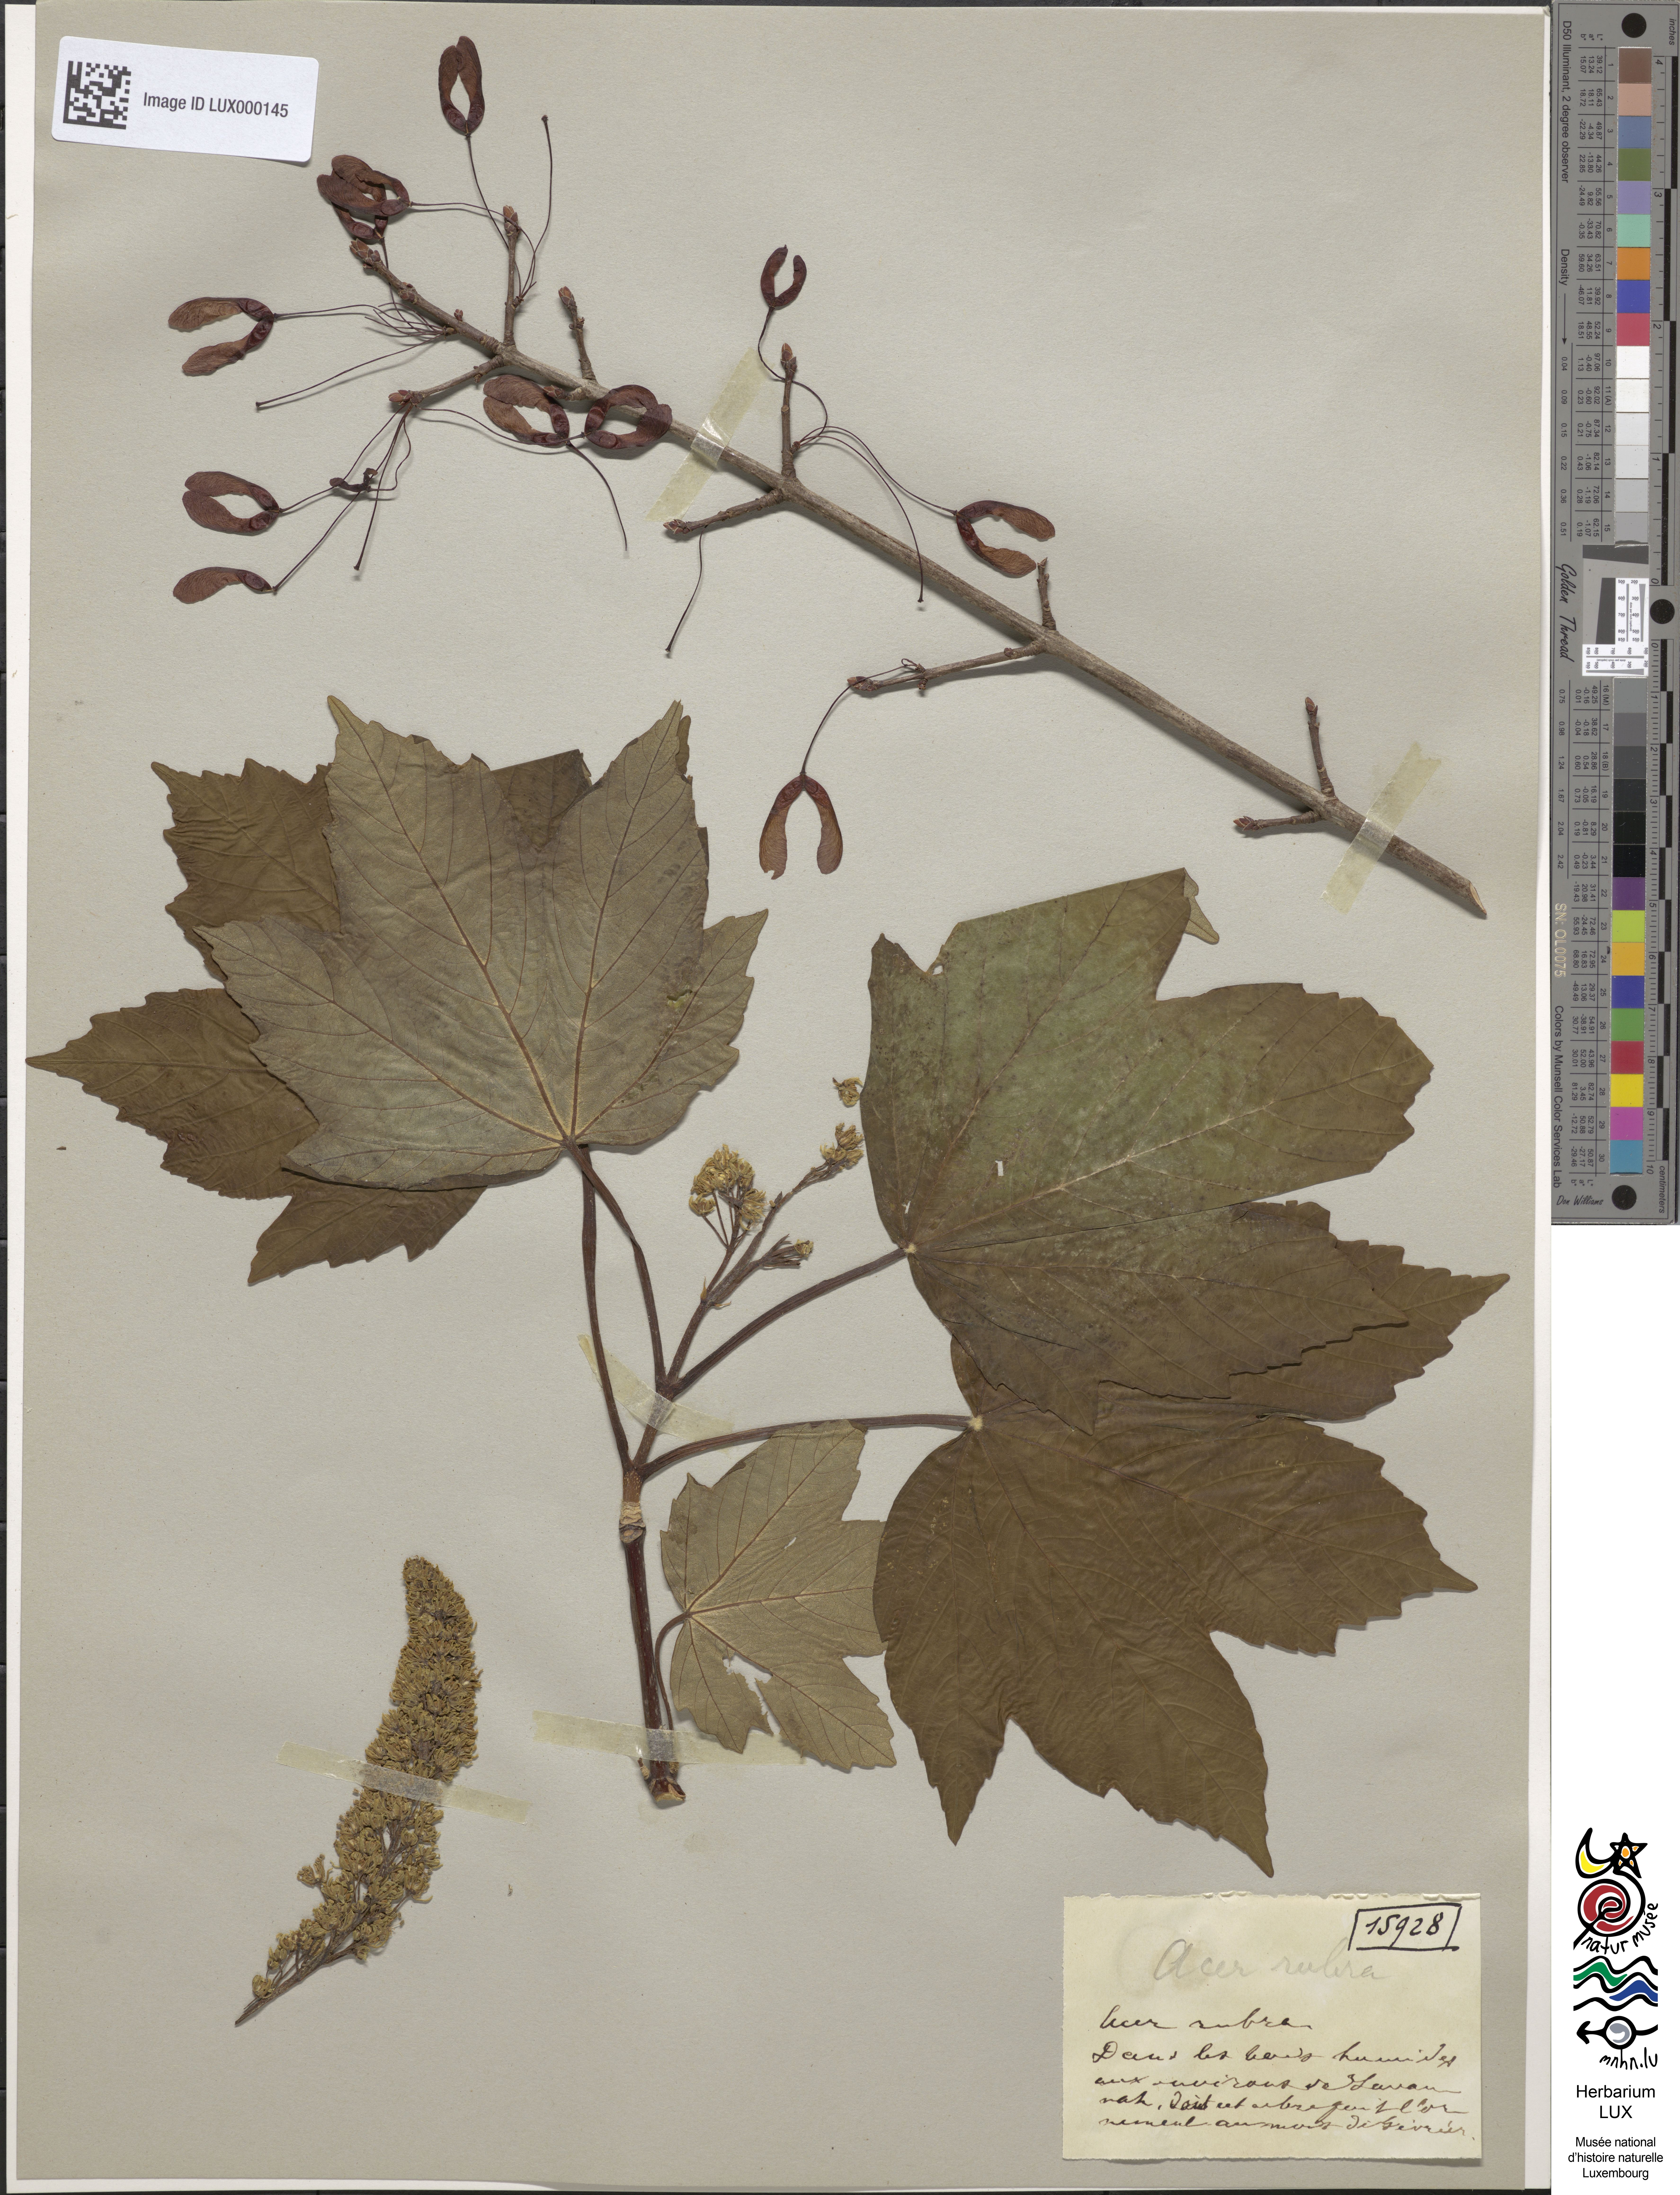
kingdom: Plantae
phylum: Tracheophyta
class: Magnoliopsida
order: Sapindales
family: Sapindaceae
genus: Acer
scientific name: Acer rubrum
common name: Red maple
